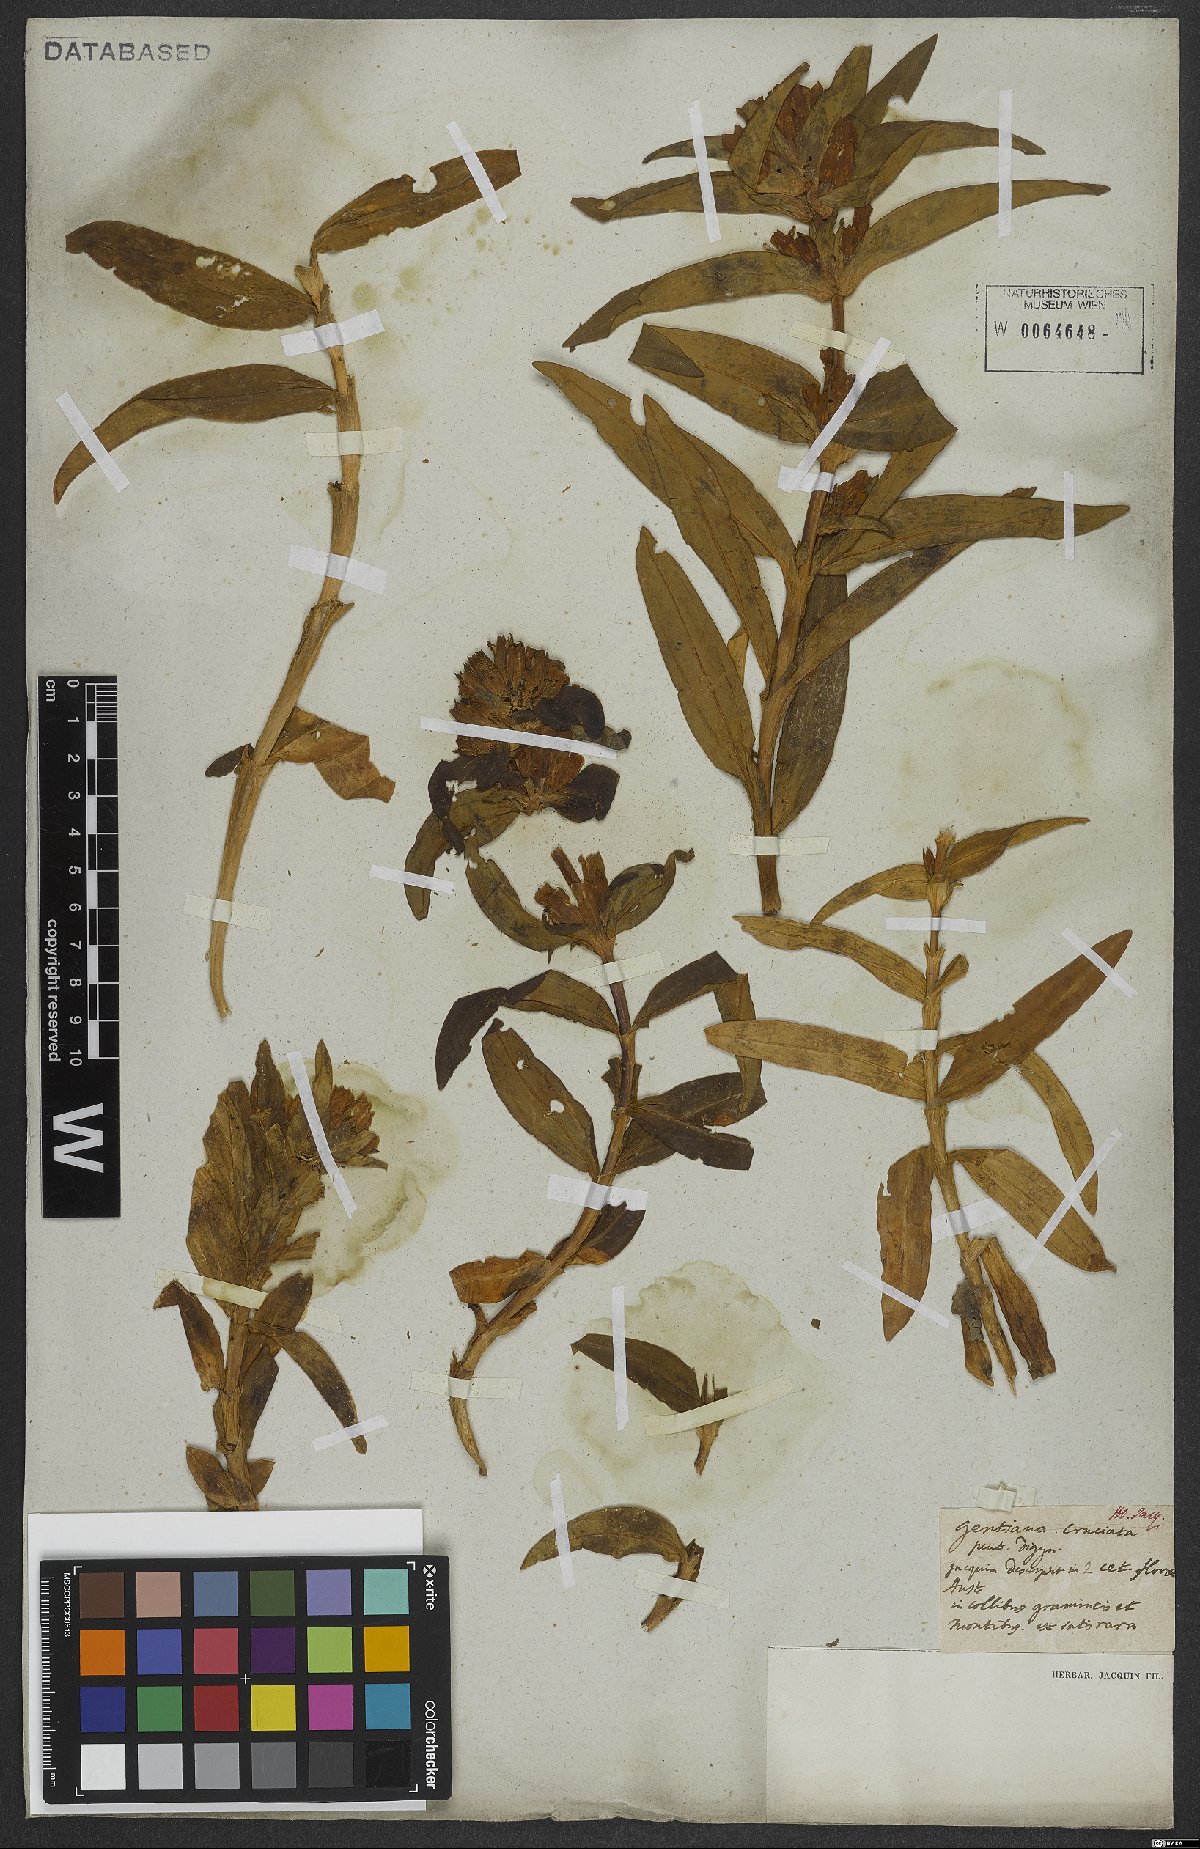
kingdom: Plantae
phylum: Tracheophyta
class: Magnoliopsida
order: Gentianales
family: Gentianaceae
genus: Gentiana
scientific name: Gentiana cruciata
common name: Cross gentian
